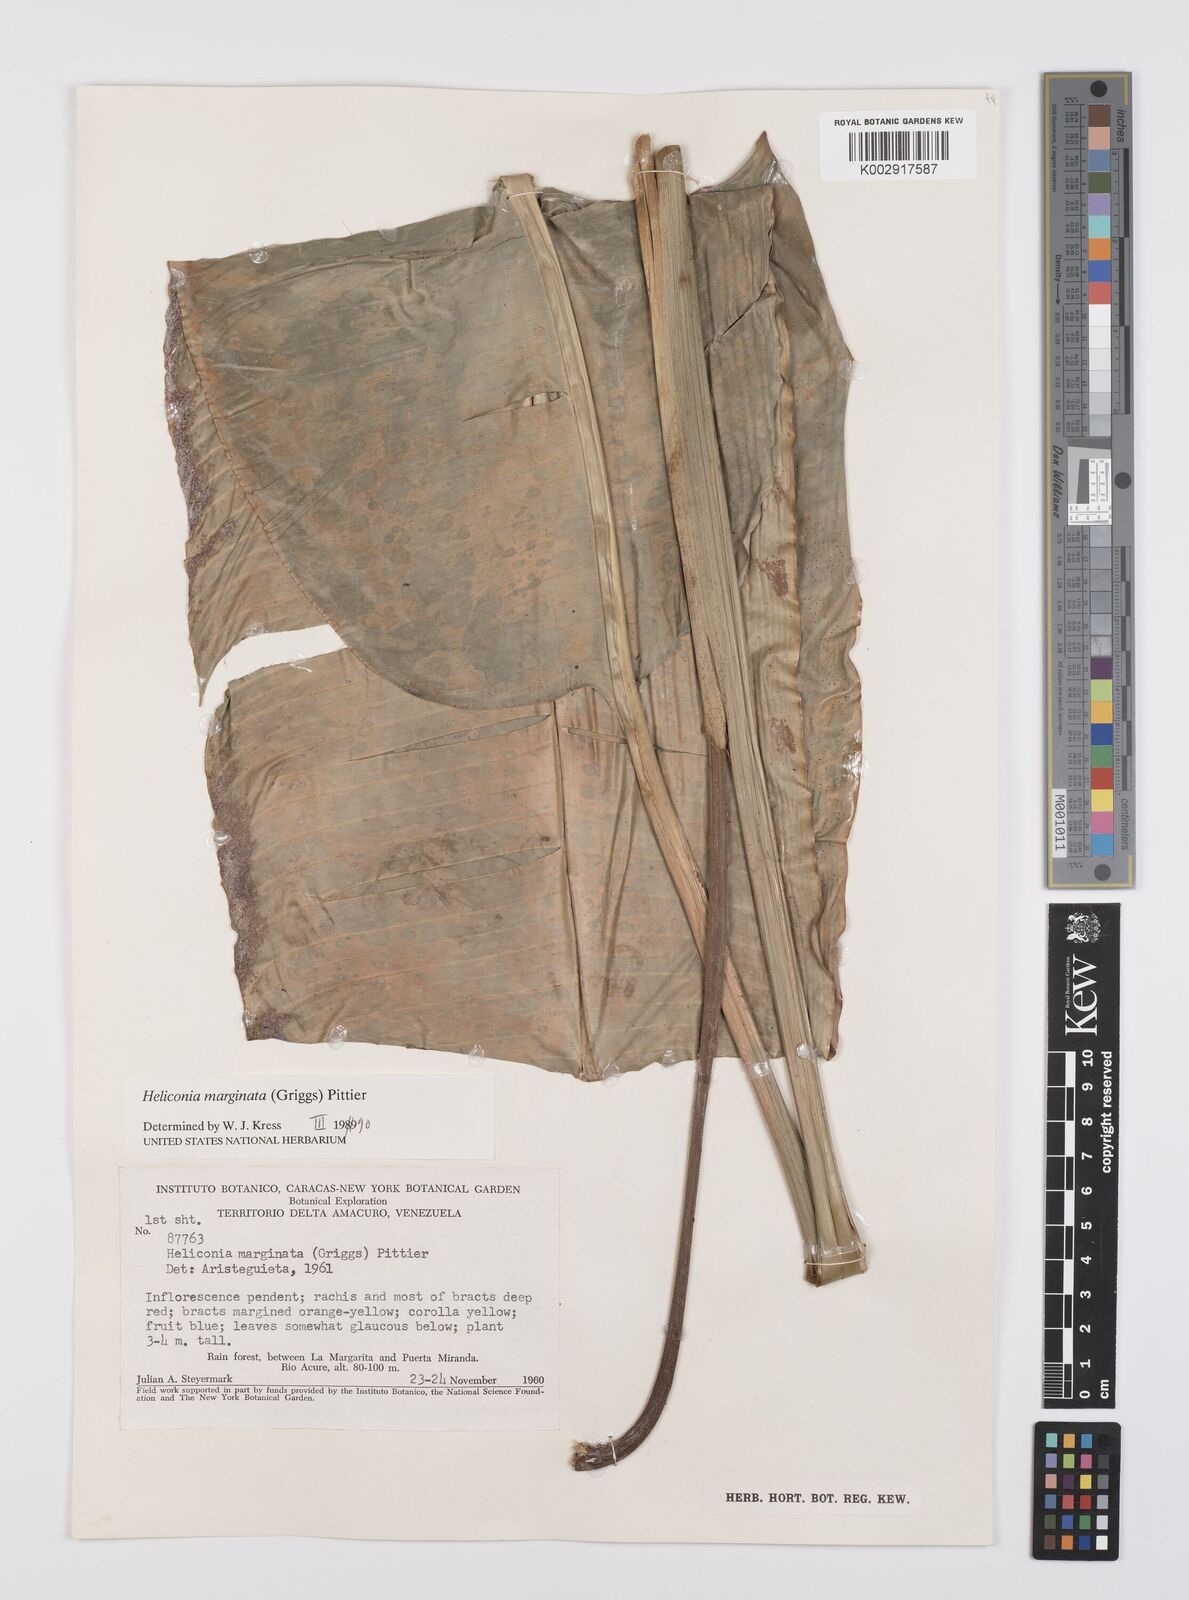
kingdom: Plantae
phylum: Tracheophyta
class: Liliopsida
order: Zingiberales
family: Heliconiaceae
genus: Heliconia
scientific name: Heliconia marginata
